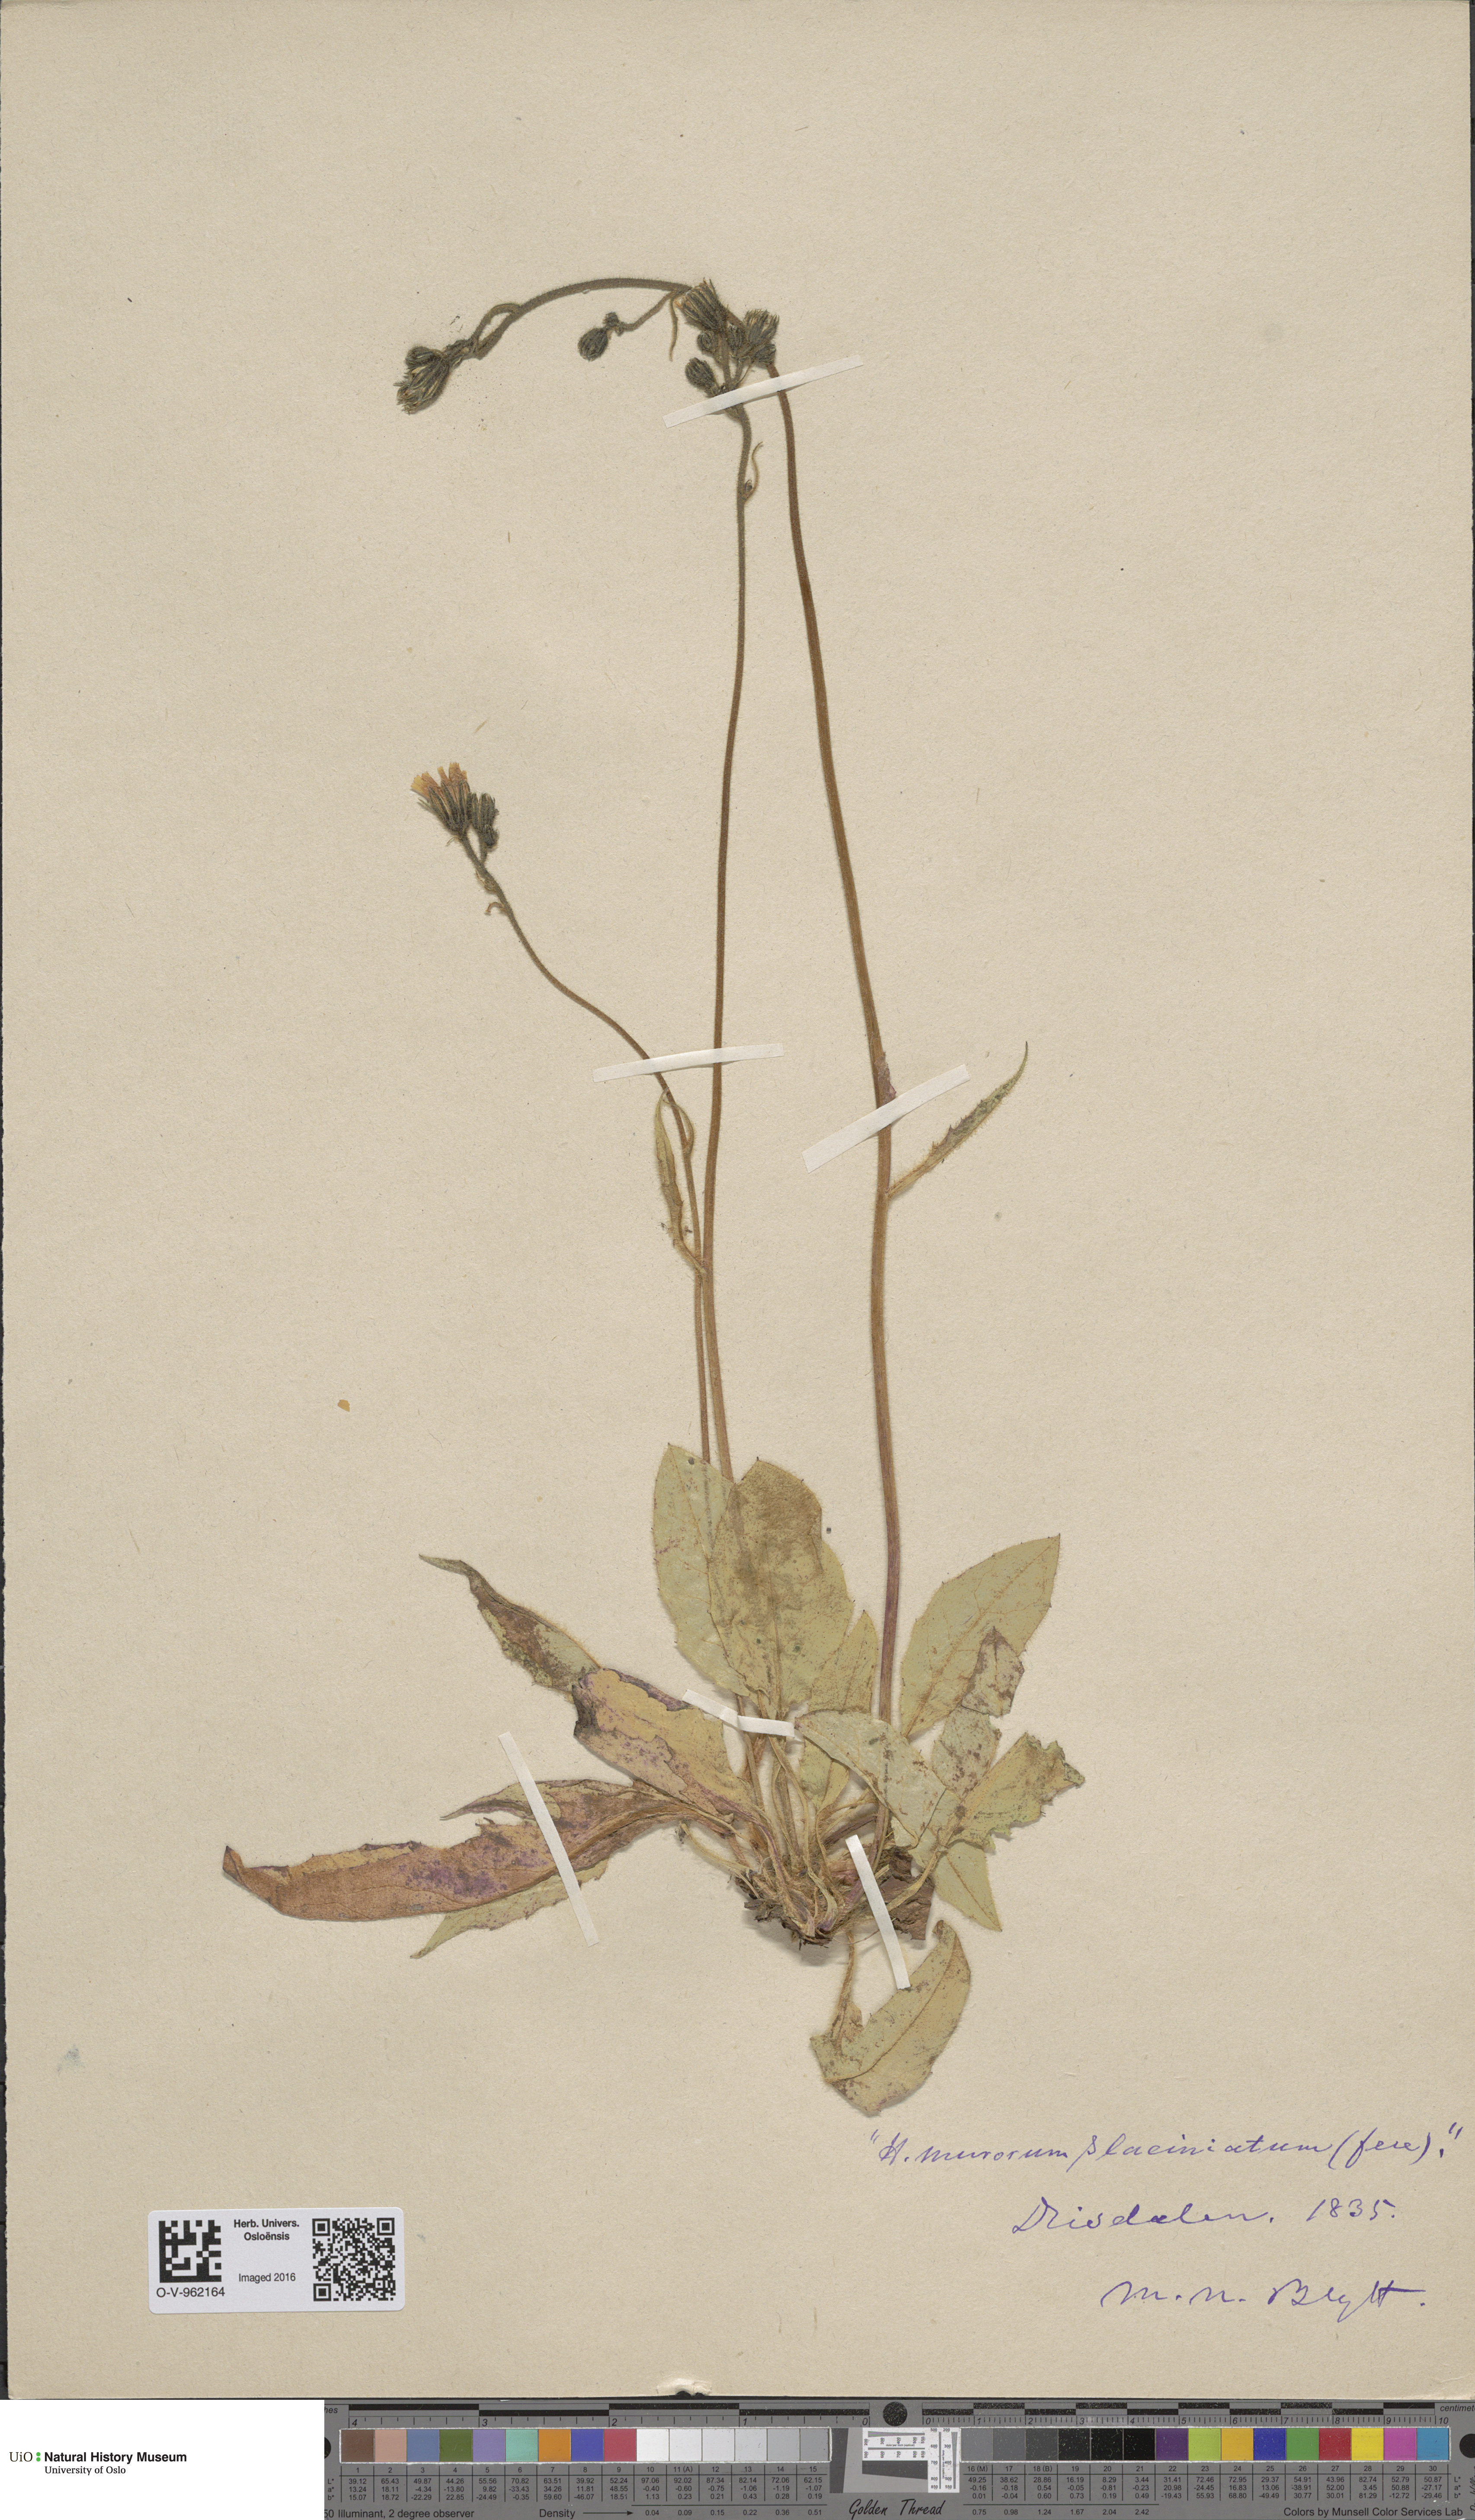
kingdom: Plantae
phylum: Tracheophyta
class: Magnoliopsida
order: Asterales
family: Asteraceae
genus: Hieracium
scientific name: Hieracium murorum
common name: Wall hawkweed
